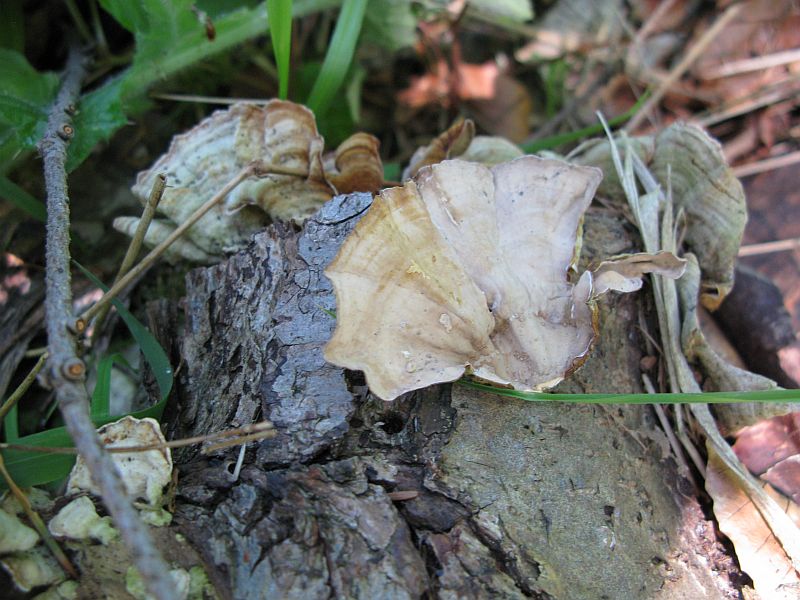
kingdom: Fungi
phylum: Basidiomycota
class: Agaricomycetes
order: Russulales
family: Stereaceae
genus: Stereum
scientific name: Stereum subtomentosum
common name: smuk lædersvamp
